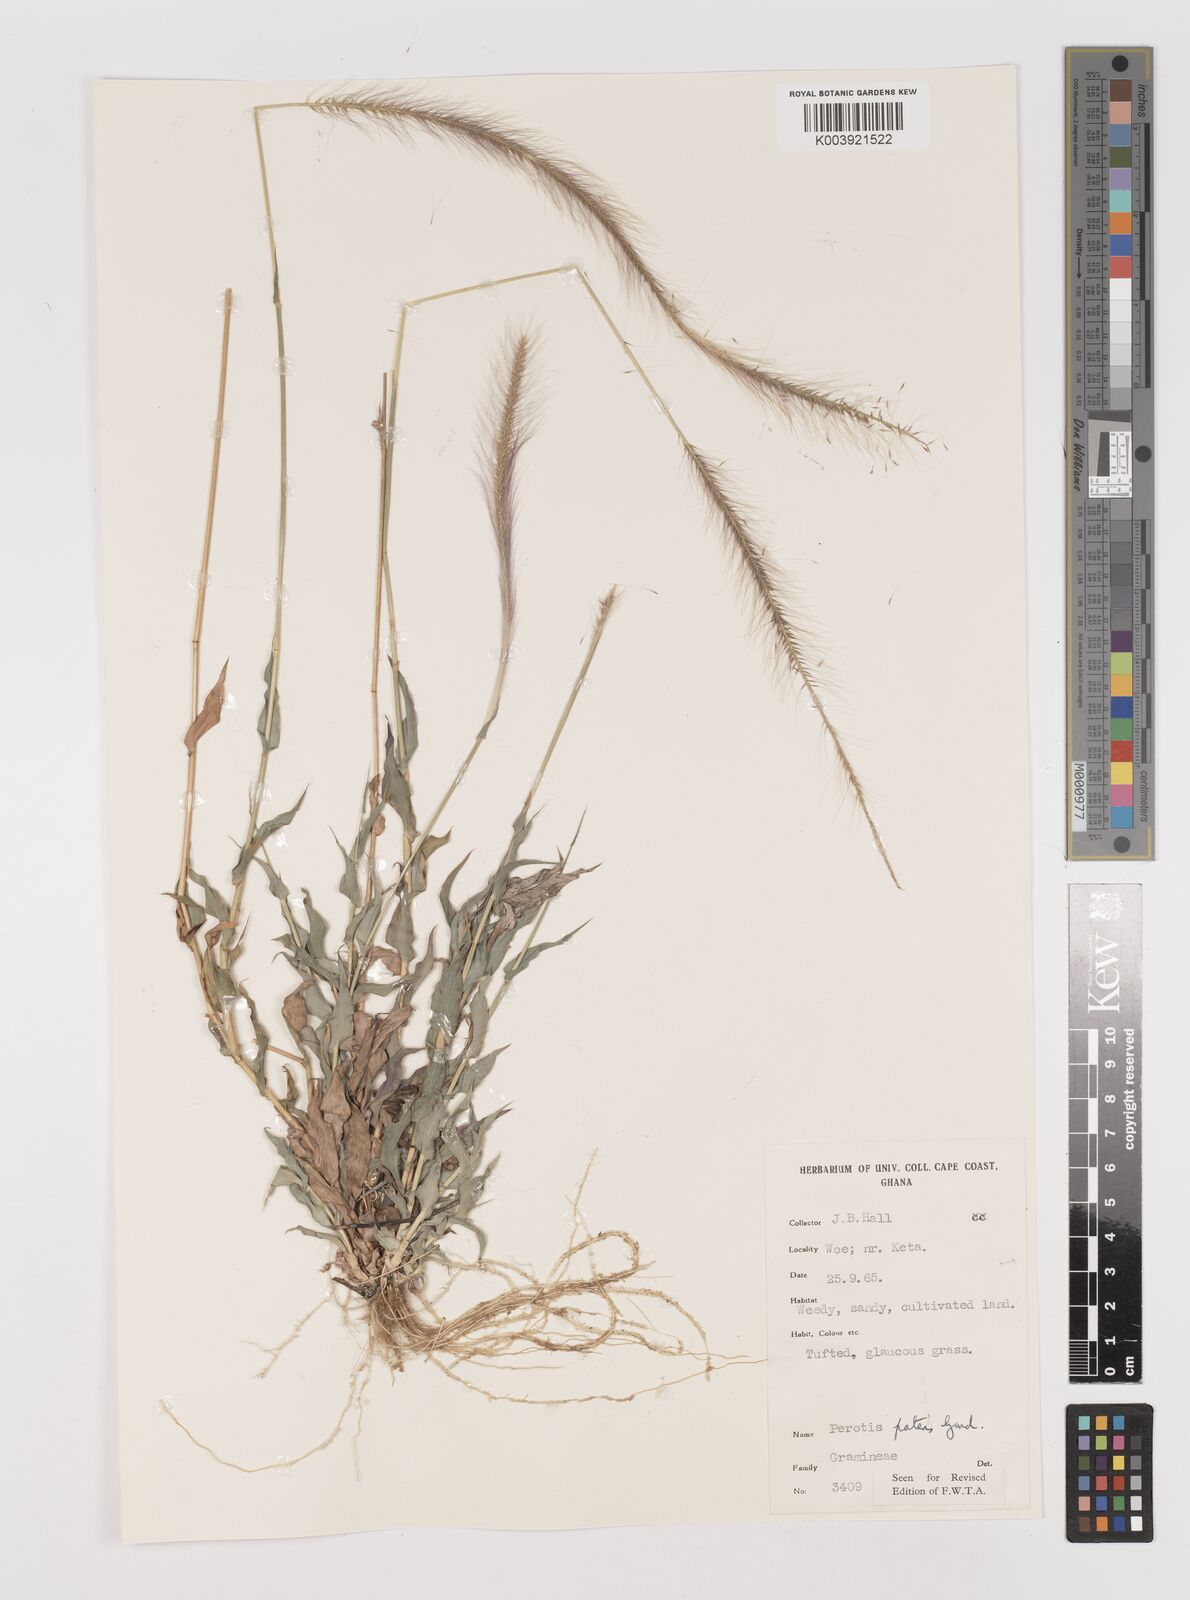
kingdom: Plantae
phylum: Tracheophyta
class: Liliopsida
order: Poales
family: Poaceae
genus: Perotis
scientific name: Perotis patens
